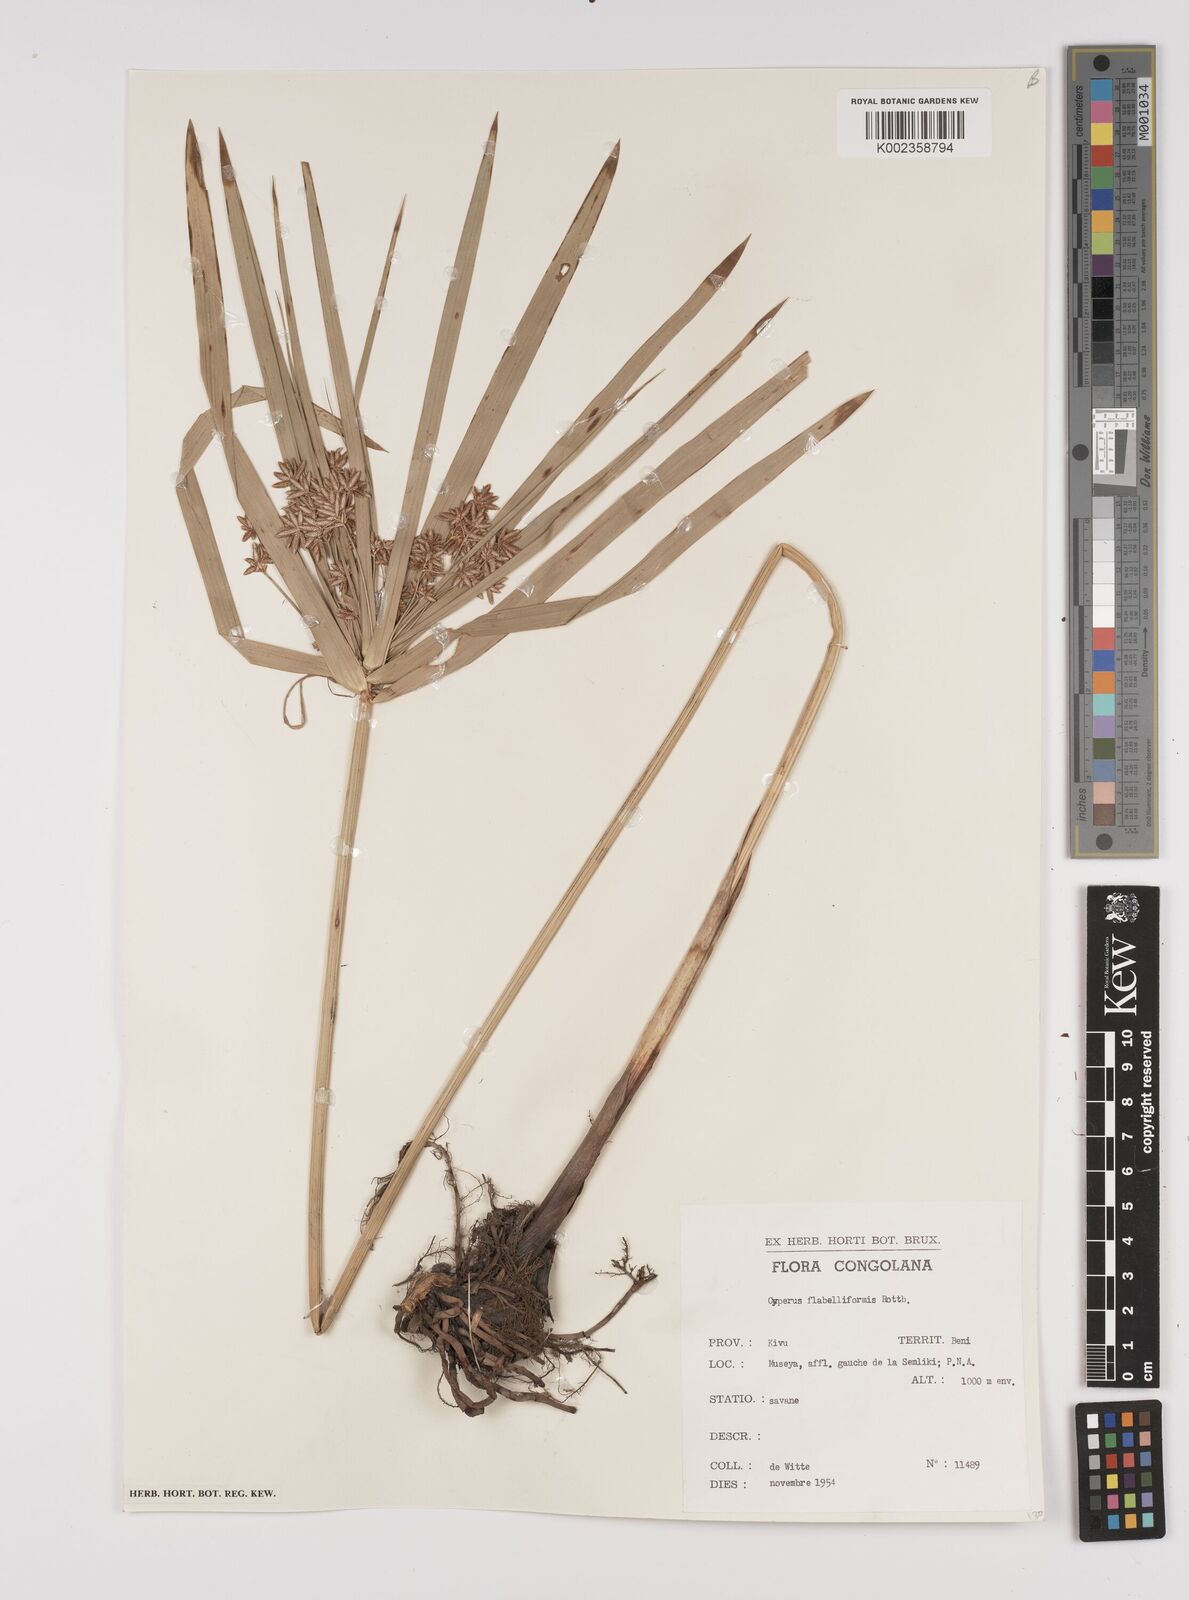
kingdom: Plantae
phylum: Tracheophyta
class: Liliopsida
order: Poales
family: Cyperaceae
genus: Cyperus
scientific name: Cyperus alternifolius
